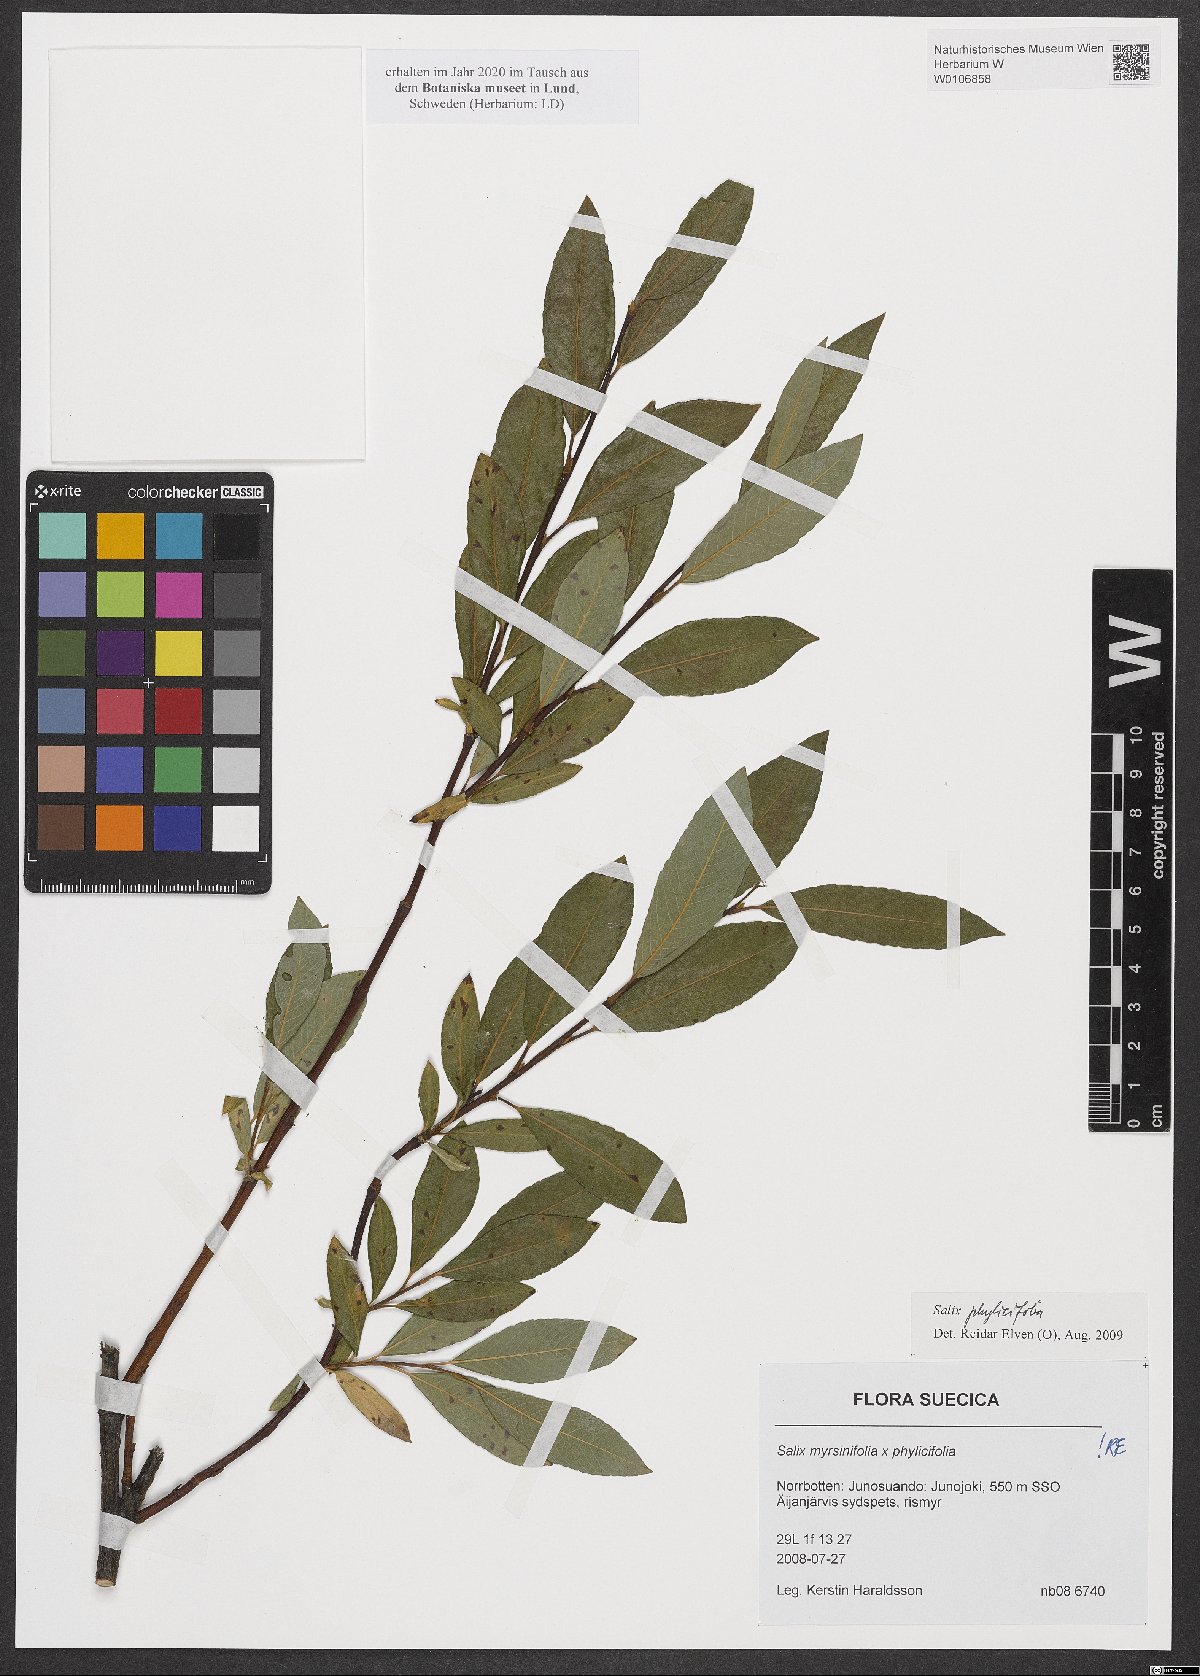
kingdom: Plantae
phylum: Tracheophyta
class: Magnoliopsida
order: Malpighiales
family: Salicaceae
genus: Salix
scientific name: Salix phylicifolia
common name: Tea-leaved willow
